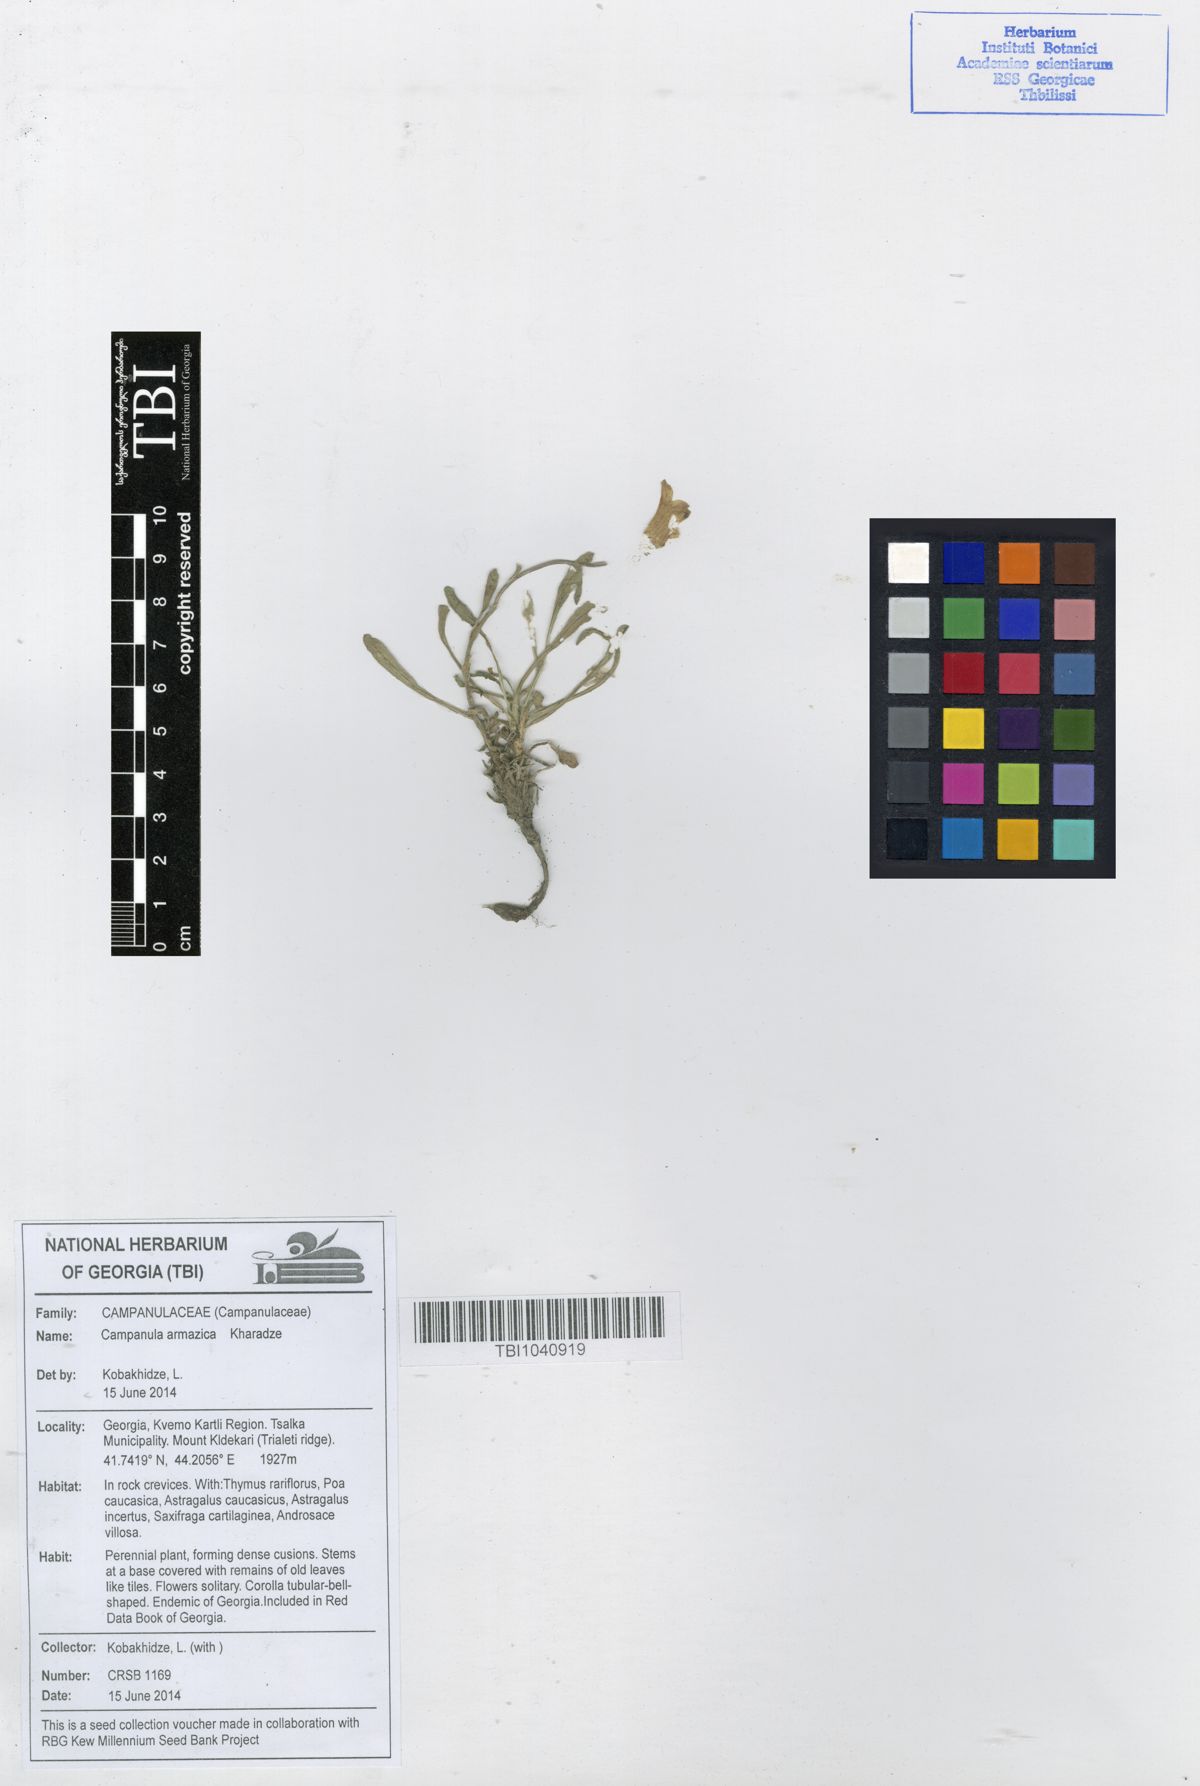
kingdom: Plantae
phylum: Tracheophyta
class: Magnoliopsida
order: Asterales
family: Campanulaceae
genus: Campanula
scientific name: Campanula bellidifolia
